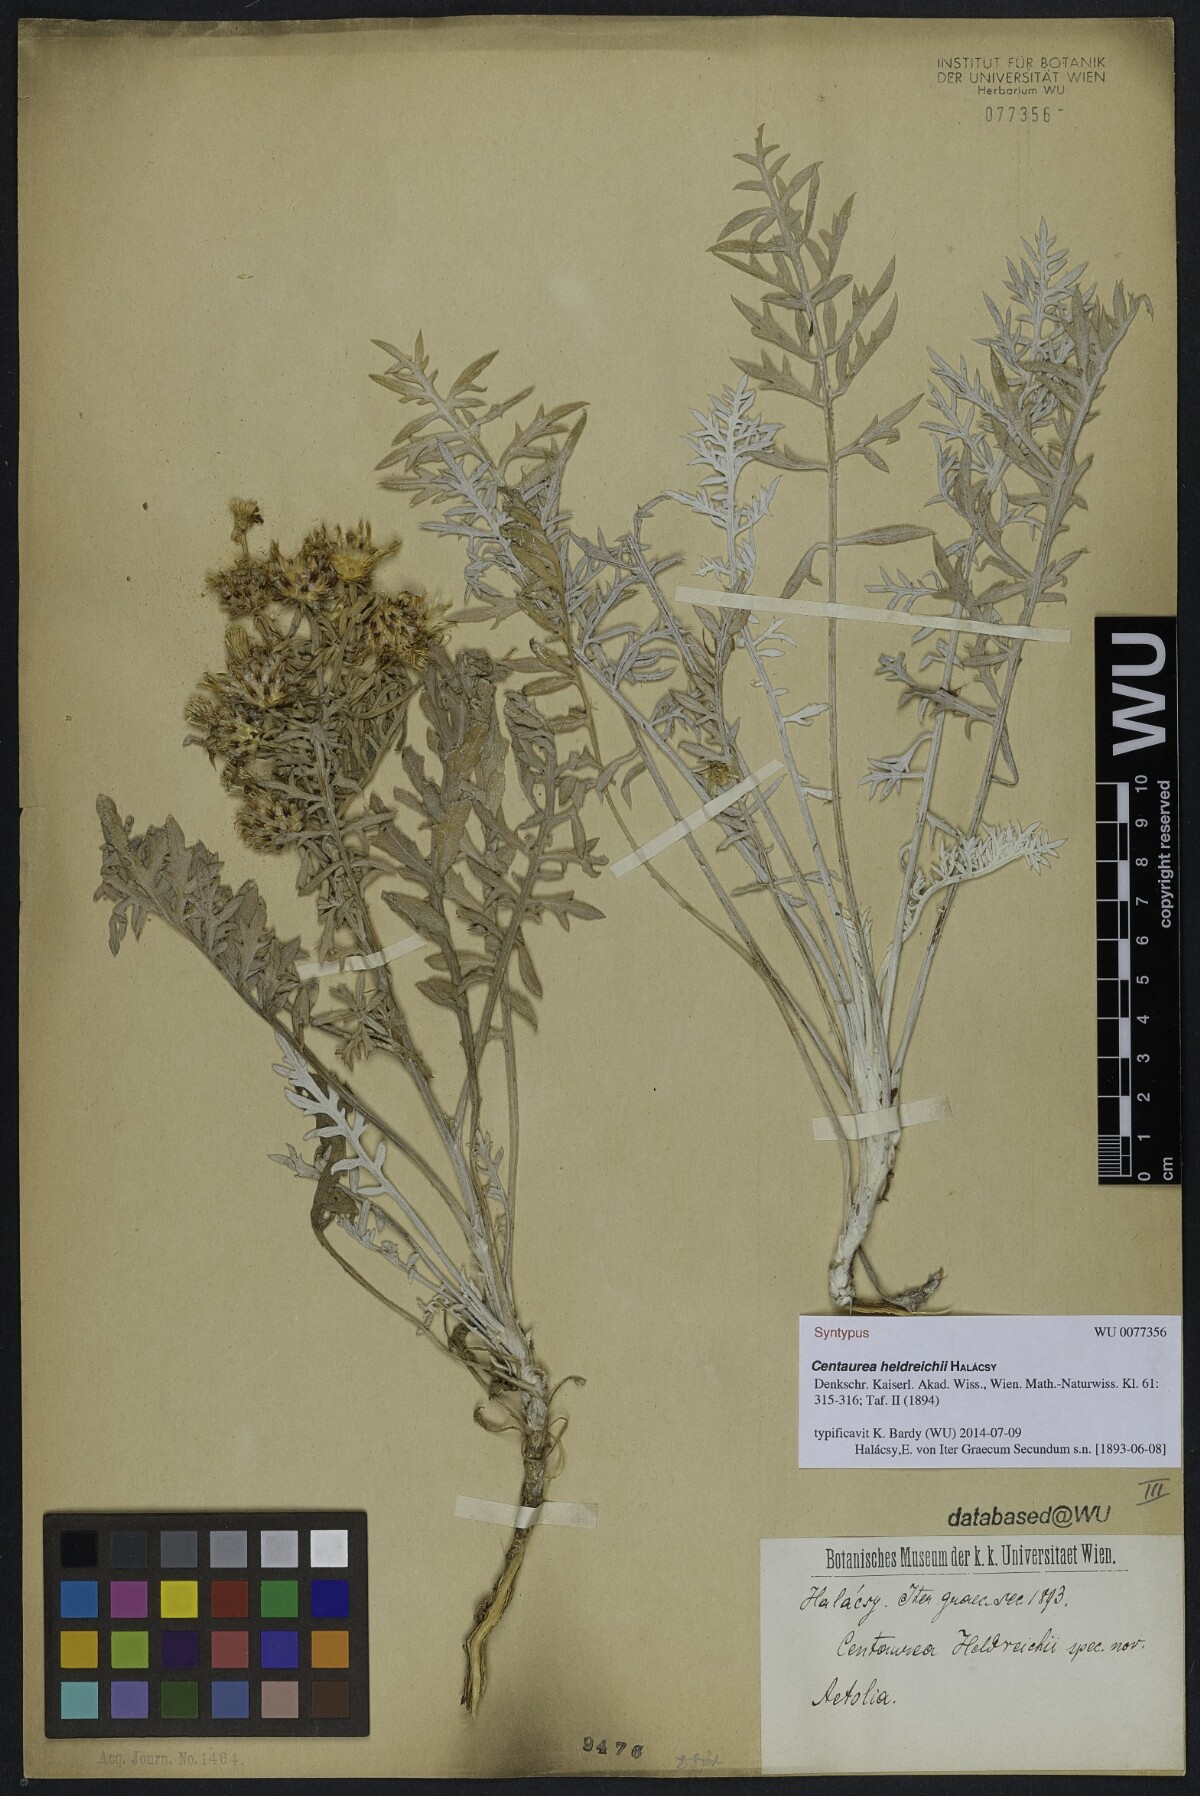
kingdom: Plantae
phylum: Tracheophyta
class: Magnoliopsida
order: Asterales
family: Asteraceae
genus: Centaurea
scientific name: Centaurea heldreichii
